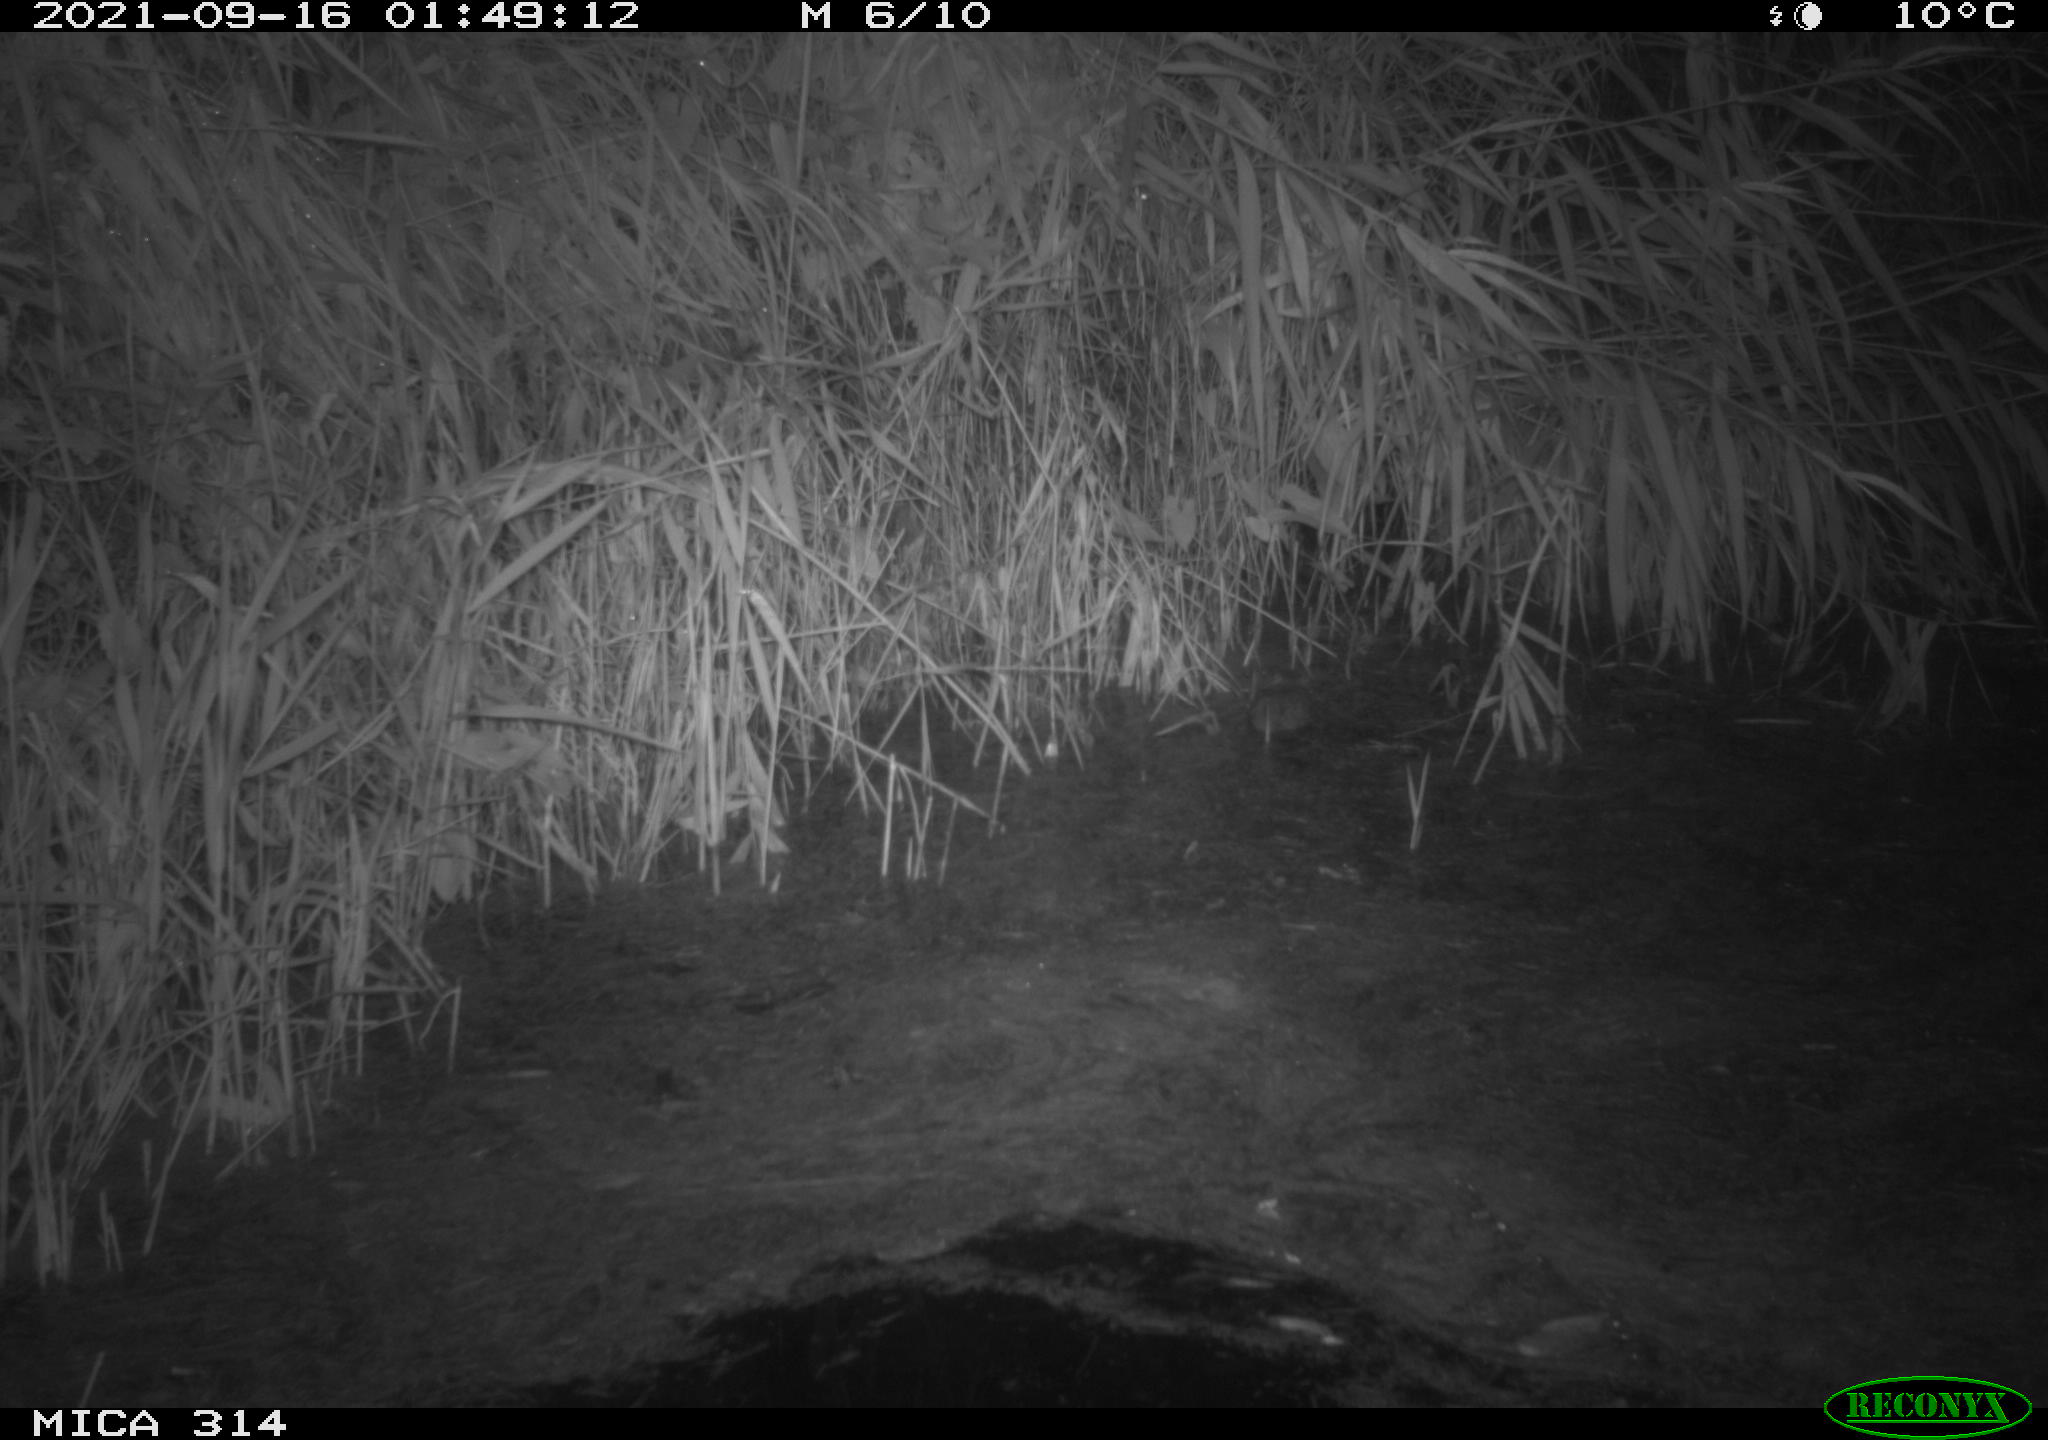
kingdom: Animalia
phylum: Chordata
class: Mammalia
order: Rodentia
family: Muridae
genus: Rattus
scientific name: Rattus norvegicus
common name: Brown rat
